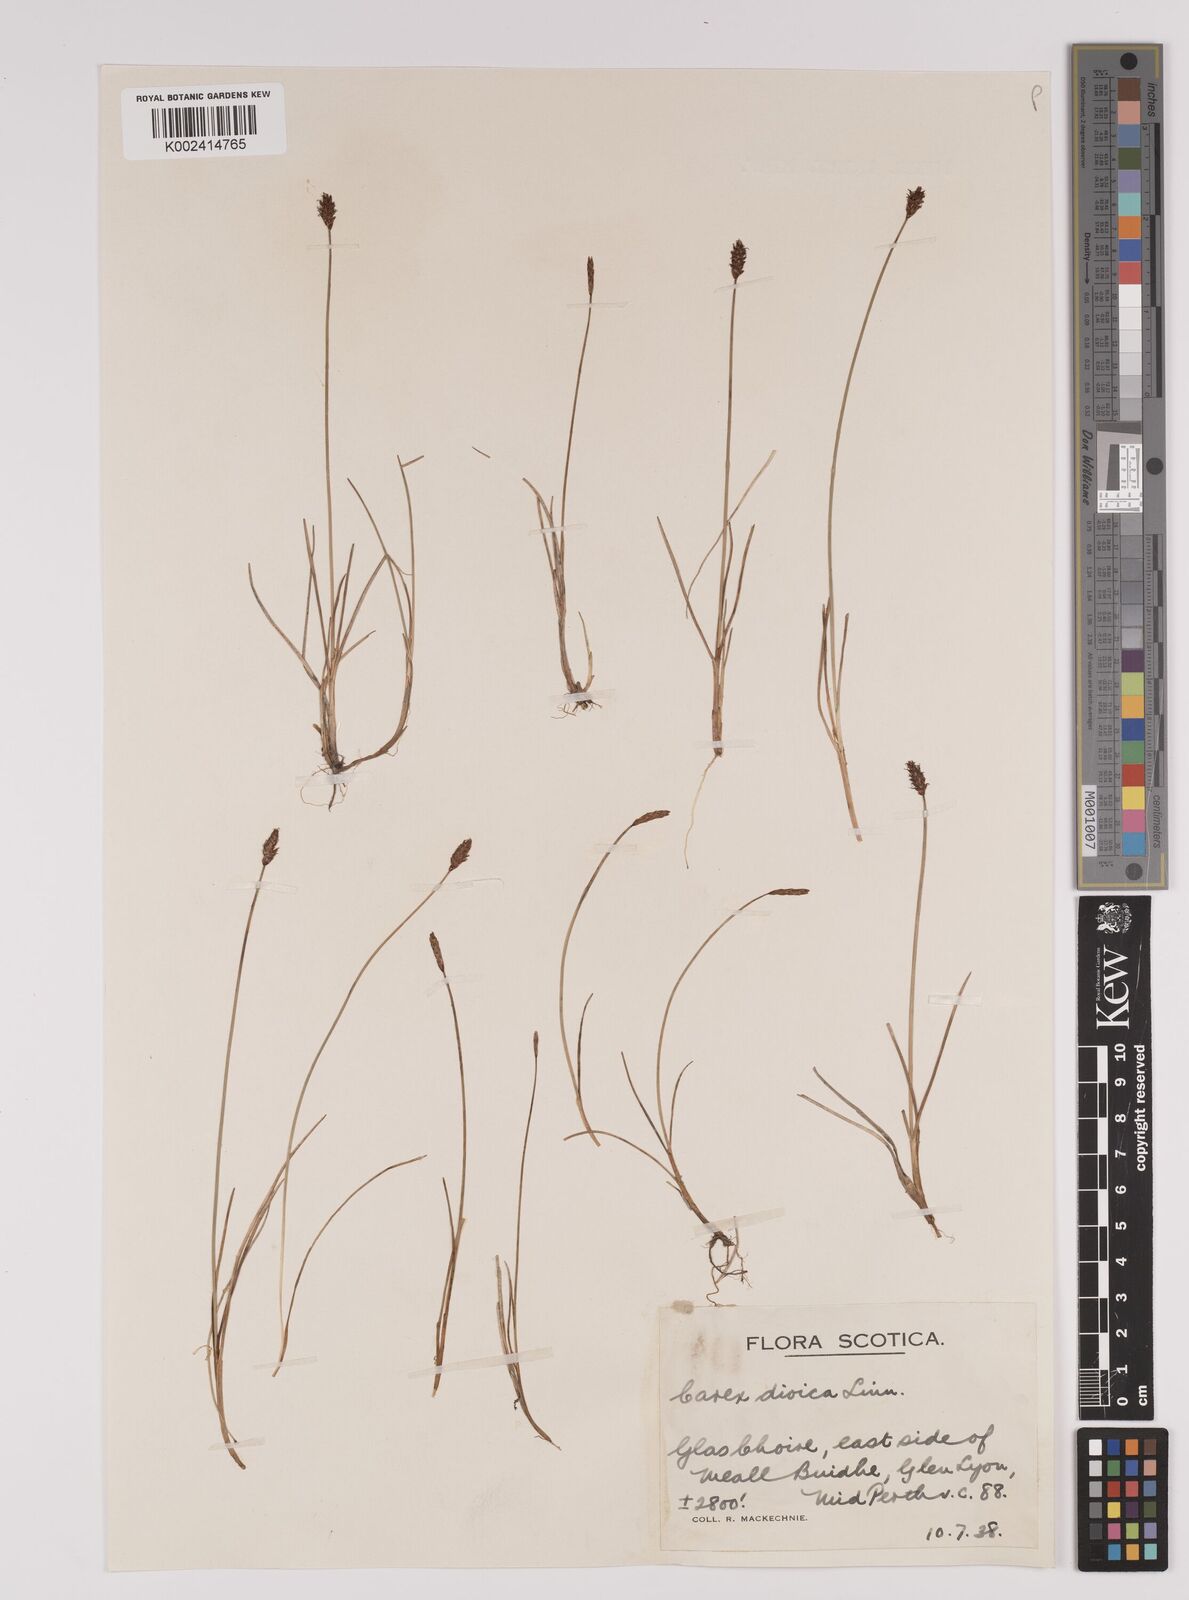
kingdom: Plantae
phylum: Tracheophyta
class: Liliopsida
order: Poales
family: Cyperaceae
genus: Carex
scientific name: Carex dioica
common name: Dioecious sedge
